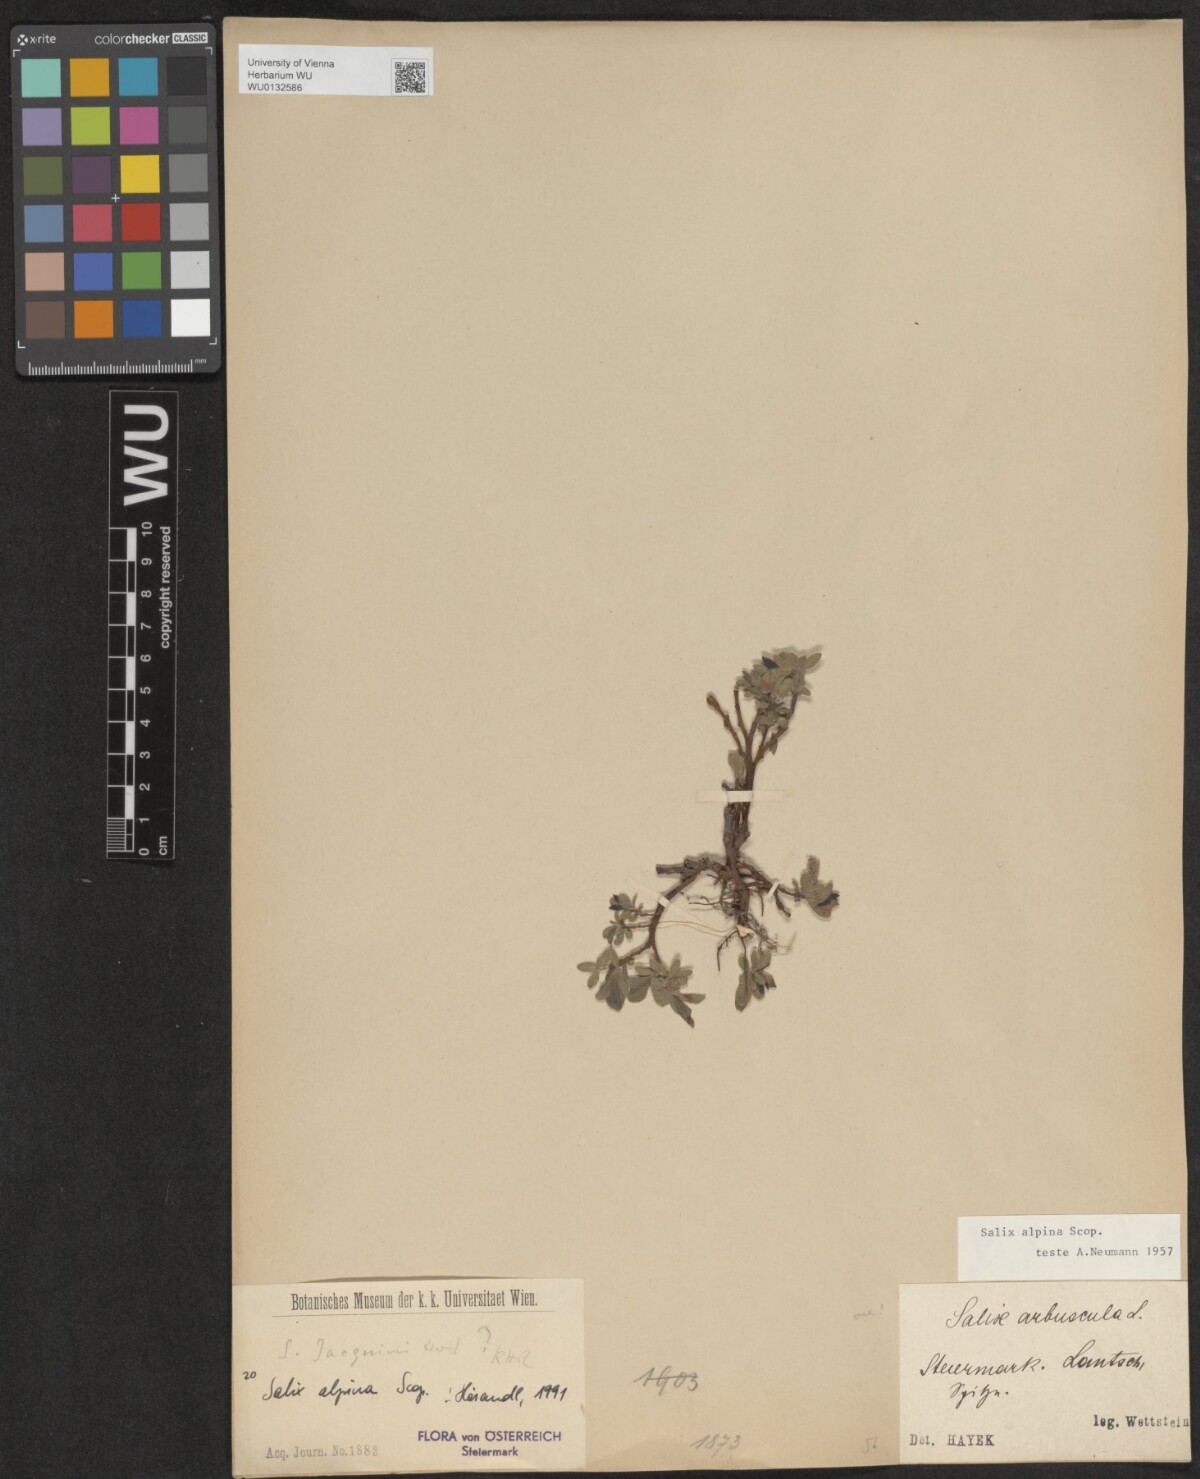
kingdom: Plantae
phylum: Tracheophyta
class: Magnoliopsida
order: Malpighiales
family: Salicaceae
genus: Salix
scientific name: Salix alpina
